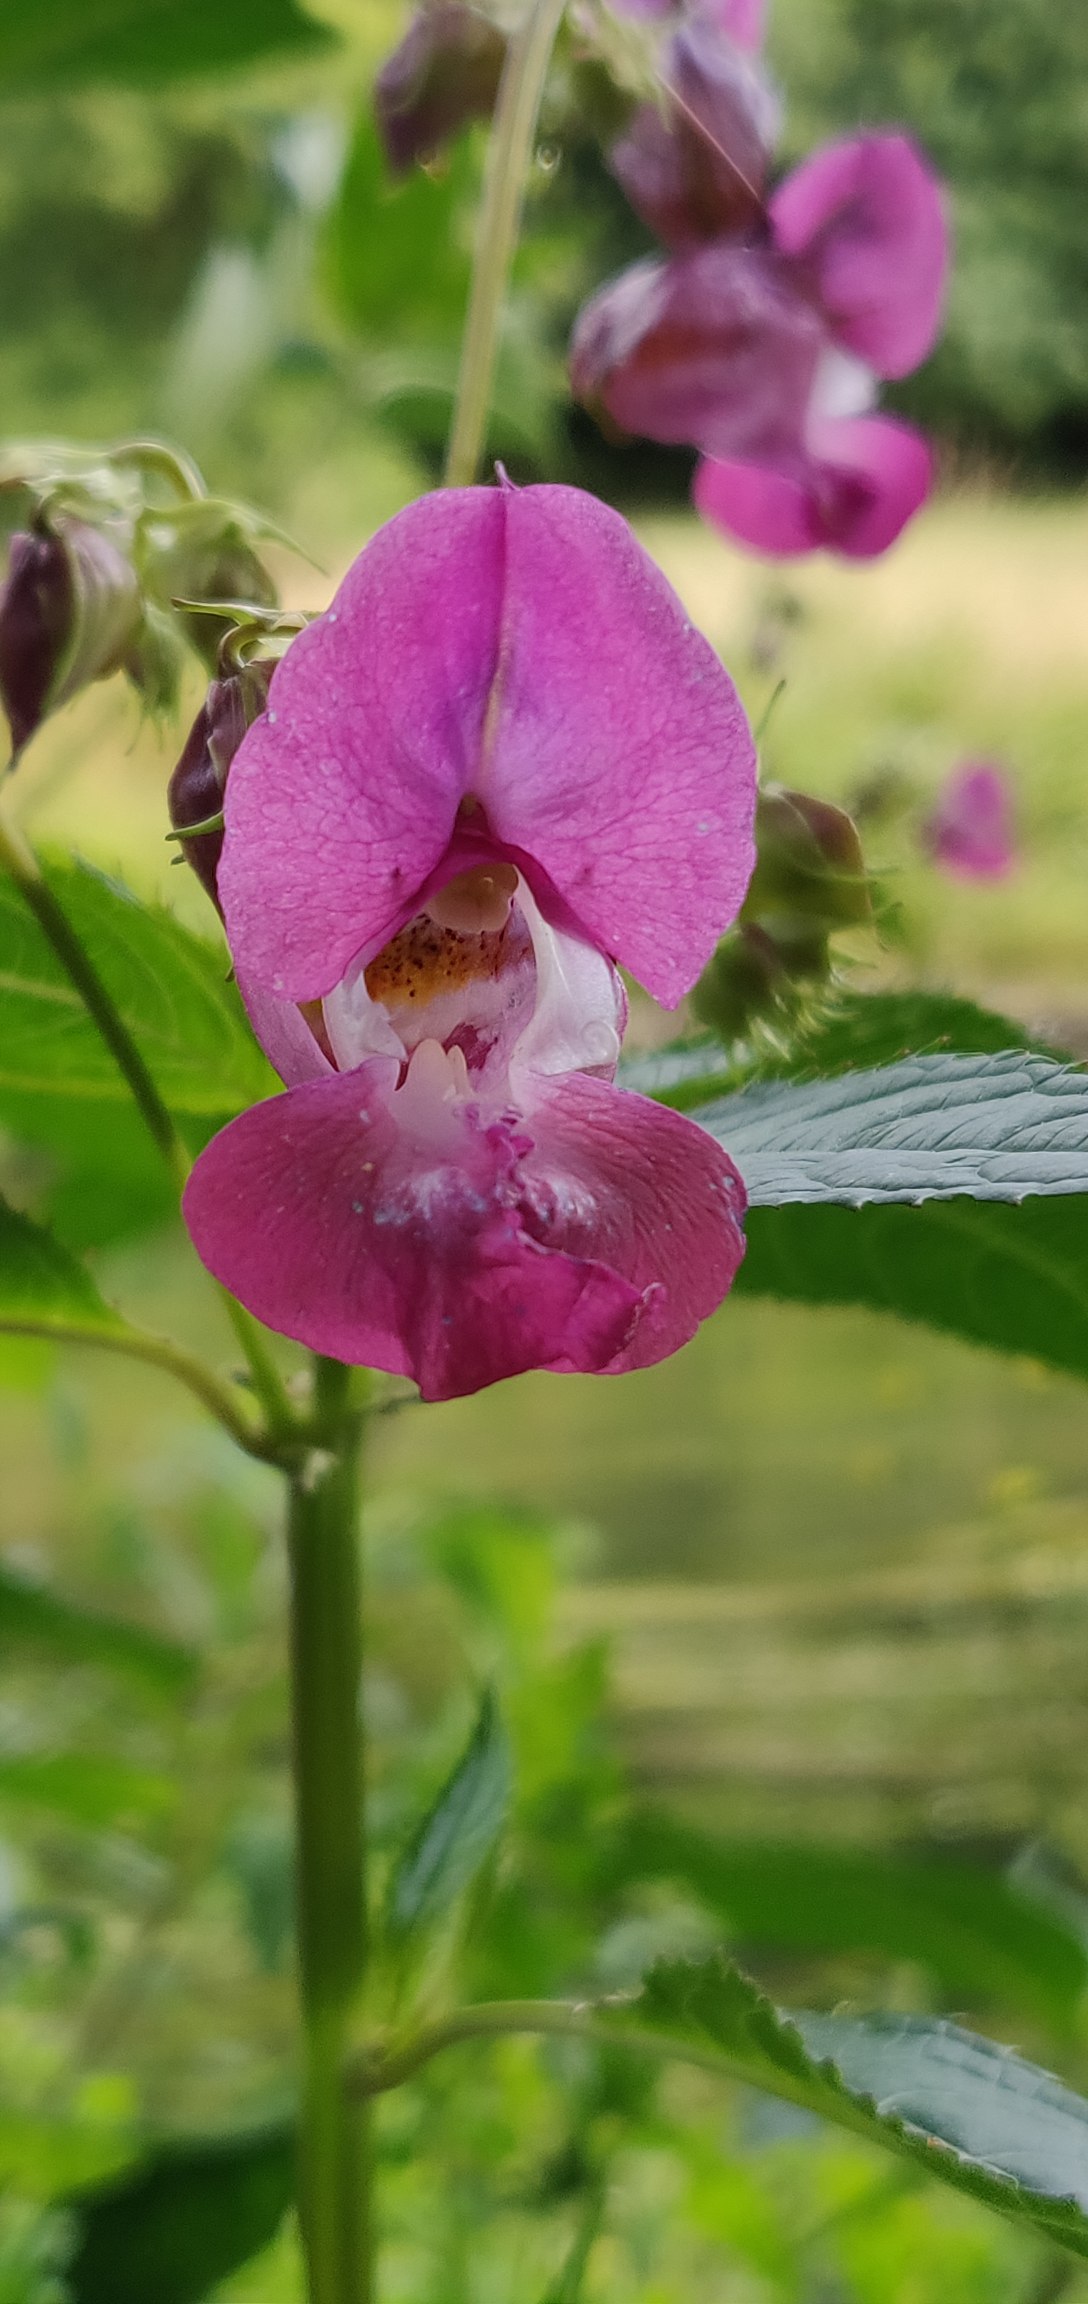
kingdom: Plantae
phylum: Tracheophyta
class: Magnoliopsida
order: Ericales
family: Balsaminaceae
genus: Impatiens
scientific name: Impatiens glandulifera
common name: Kæmpe-balsamin
